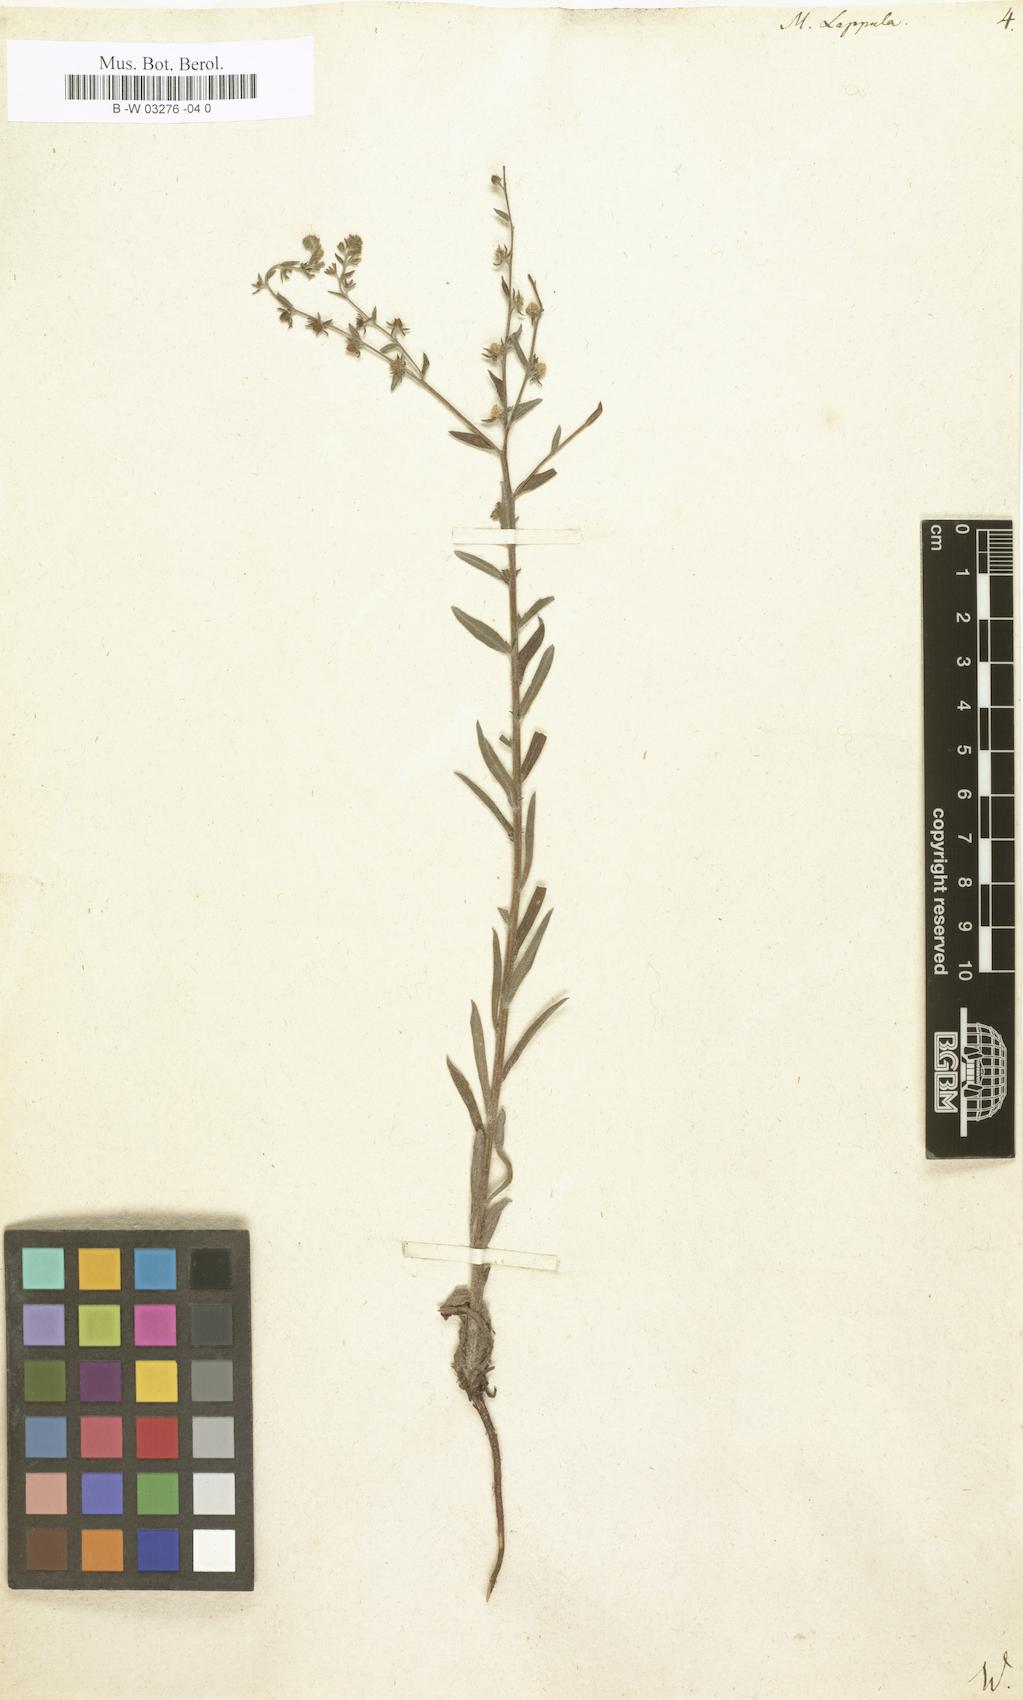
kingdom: Plantae
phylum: Tracheophyta
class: Magnoliopsida
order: Boraginales
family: Boraginaceae
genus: Lappula
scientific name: Lappula squarrosa
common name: European stickseed
